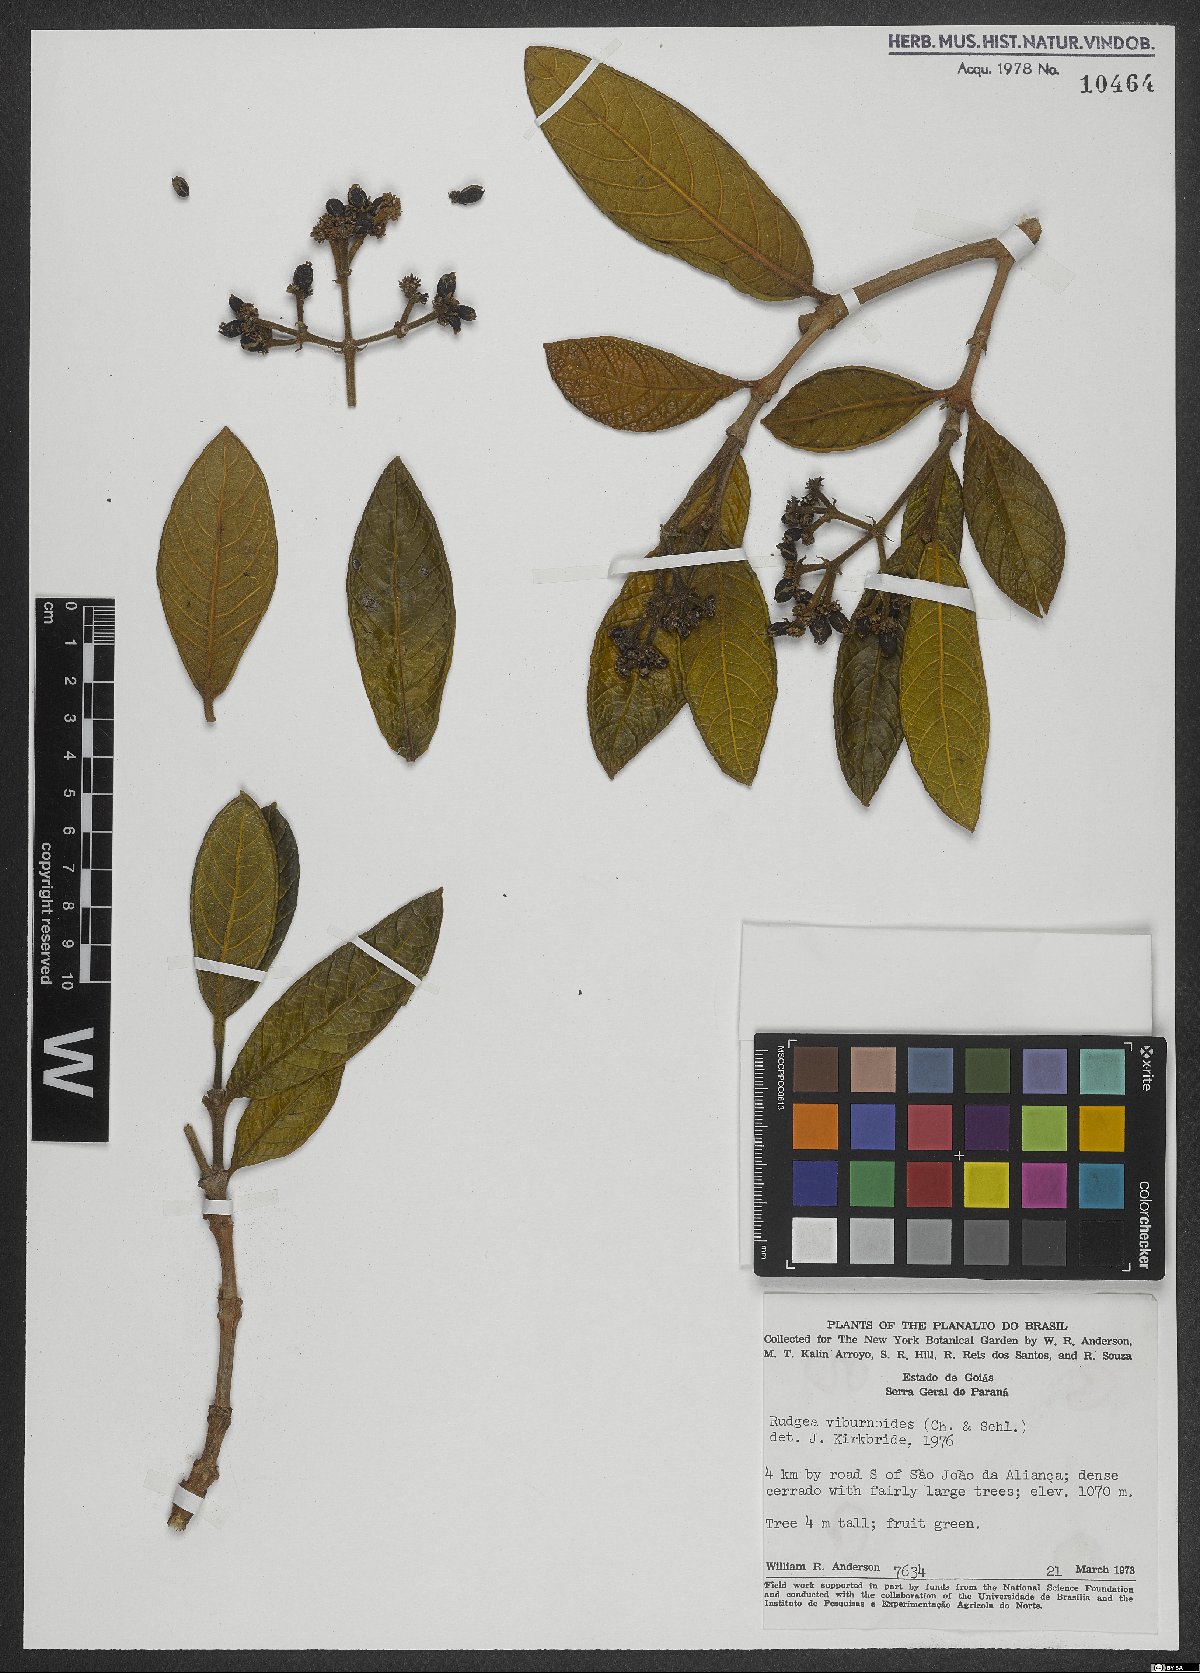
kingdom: Plantae
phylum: Tracheophyta
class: Magnoliopsida
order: Gentianales
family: Rubiaceae
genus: Rudgea
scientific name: Rudgea viburnoides
